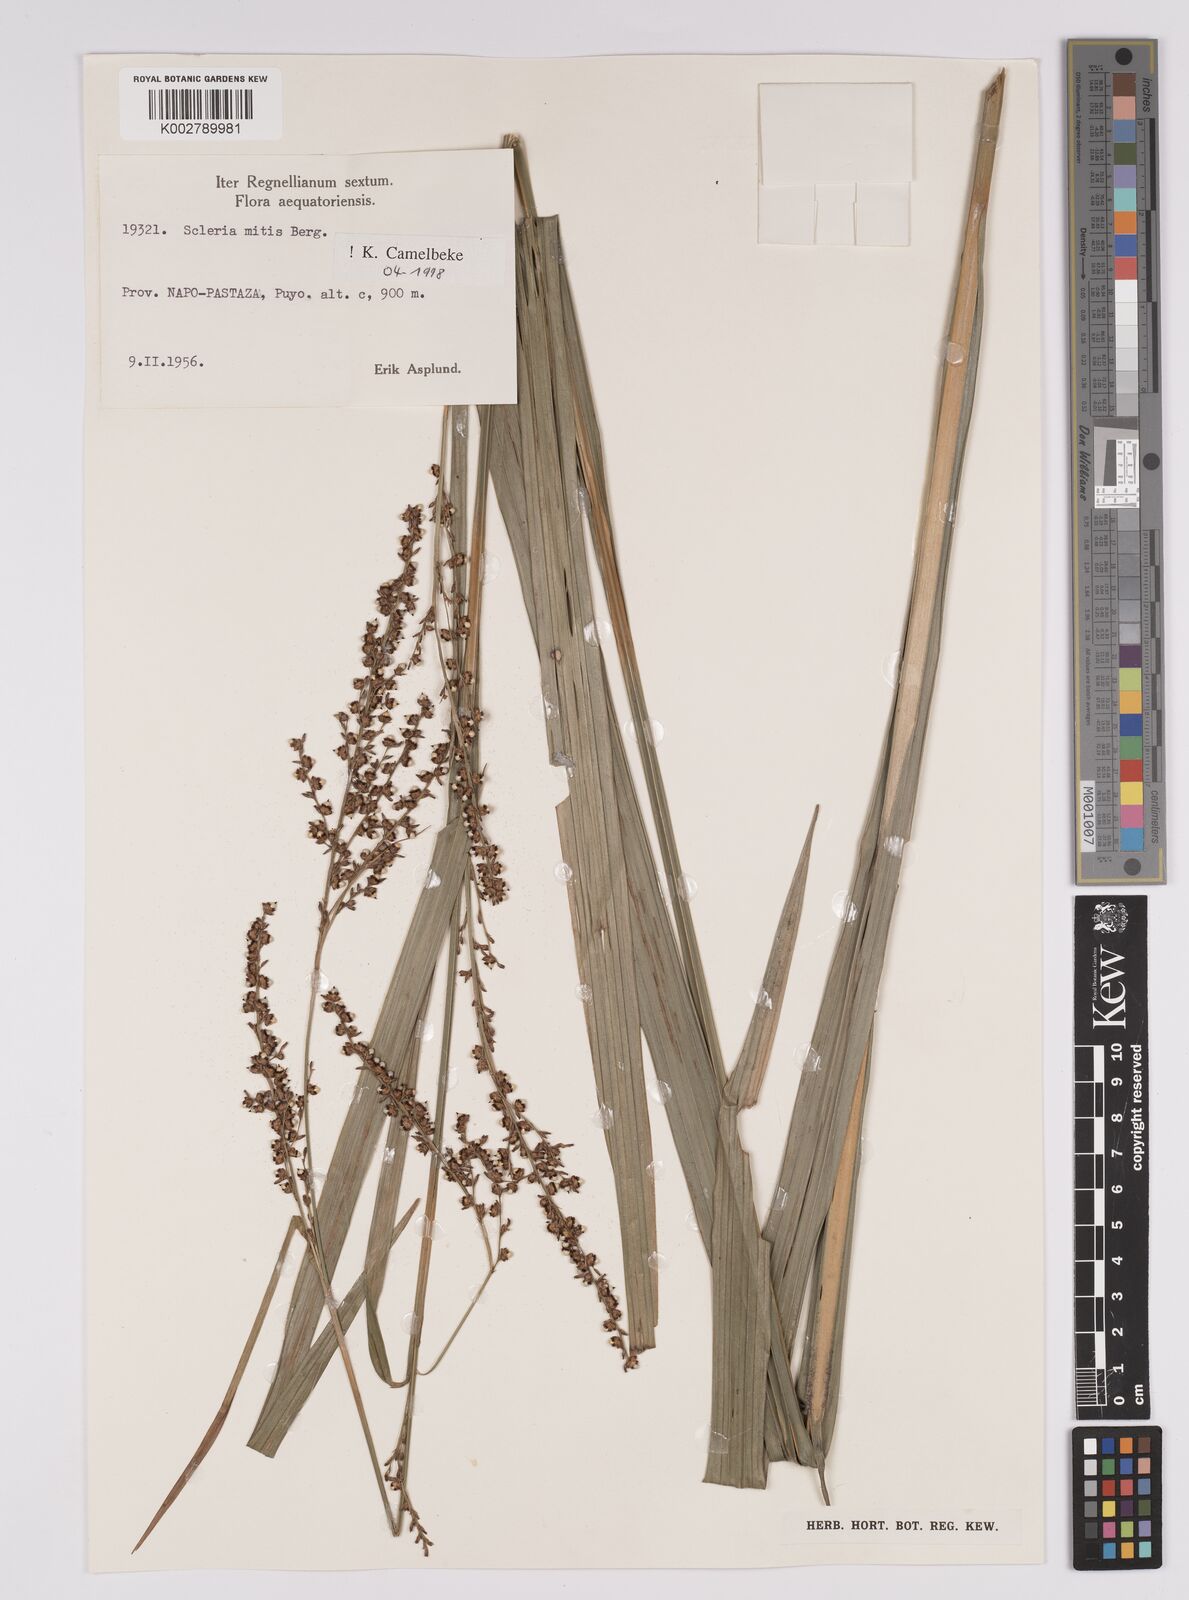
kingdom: Plantae
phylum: Tracheophyta
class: Liliopsida
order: Poales
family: Cyperaceae
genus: Scleria
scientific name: Scleria mitis
